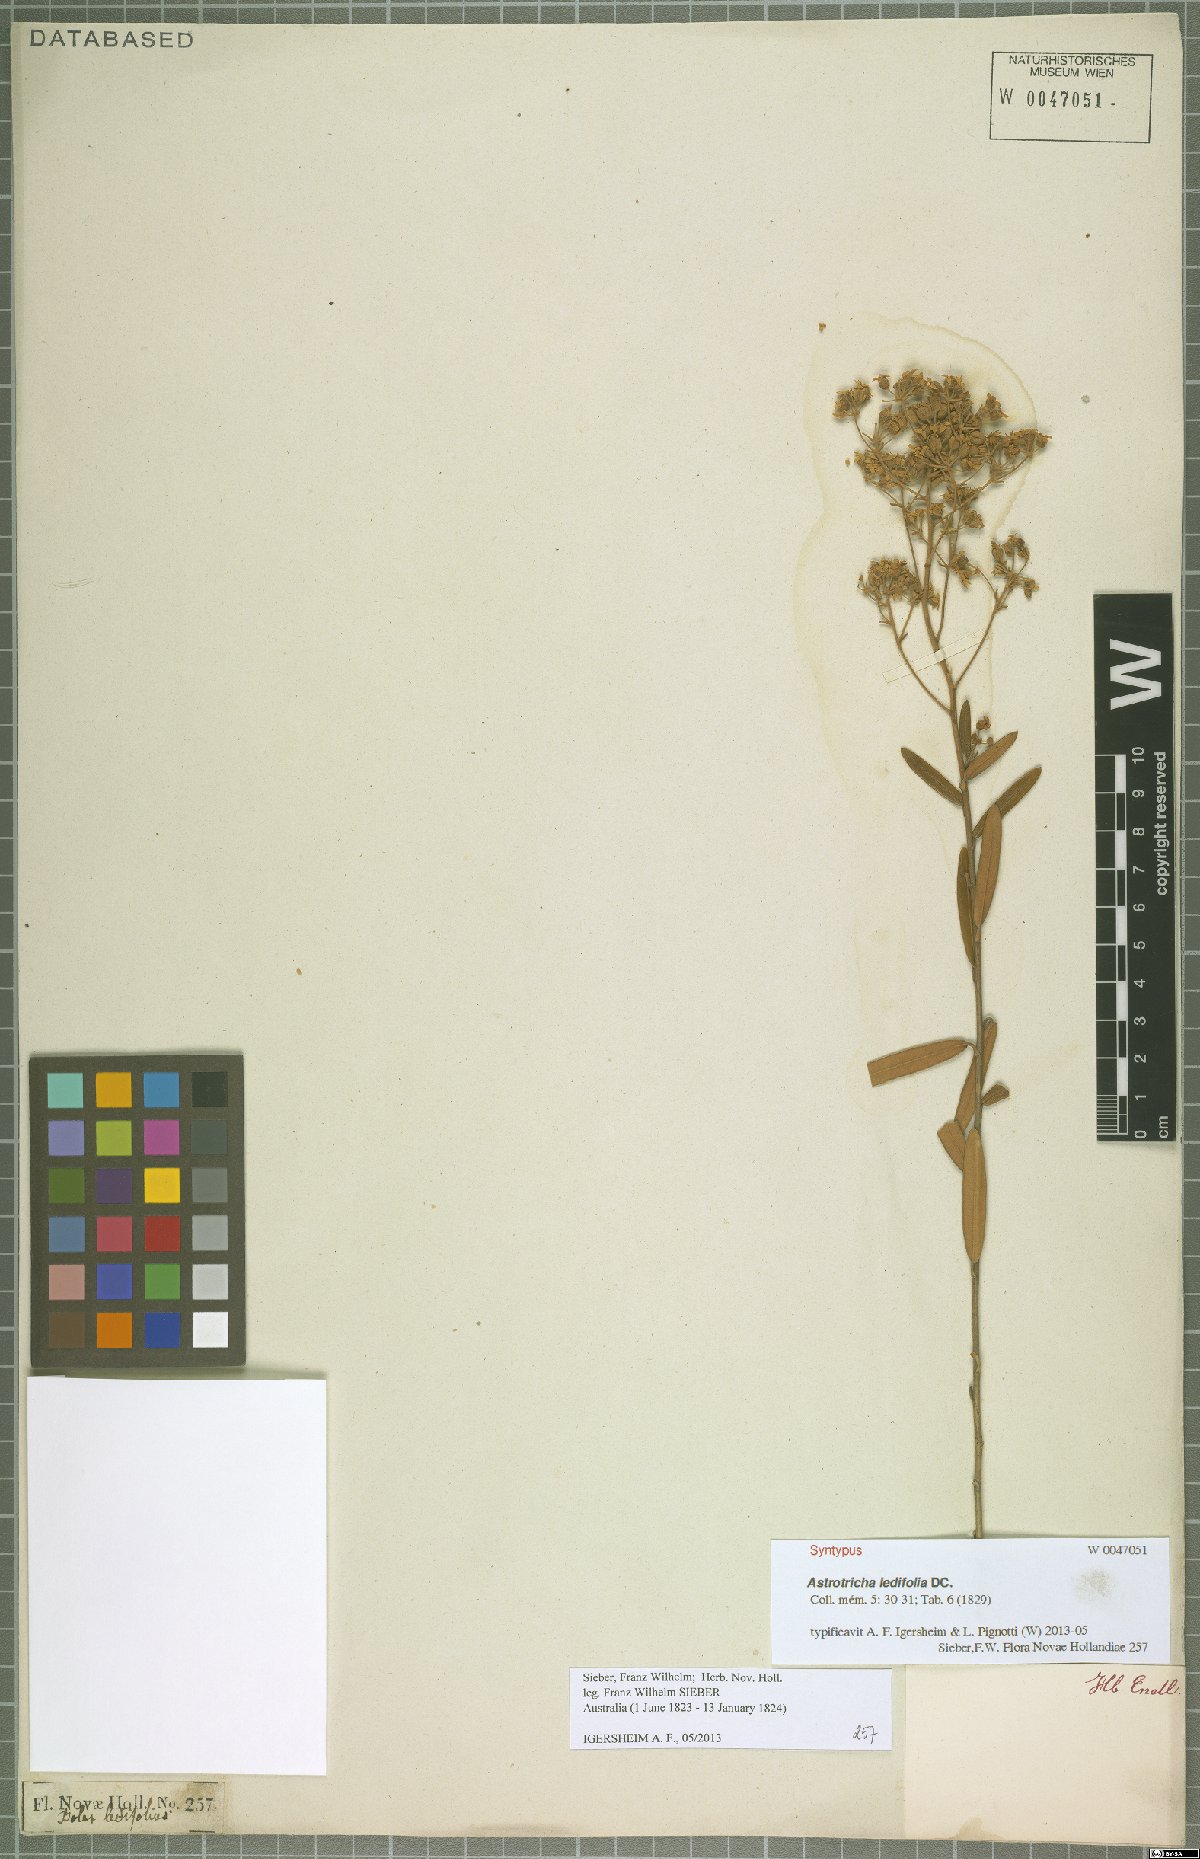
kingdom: Plantae
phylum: Tracheophyta
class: Magnoliopsida
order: Apiales
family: Araliaceae
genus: Astrotricha
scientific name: Astrotricha ledifolia
